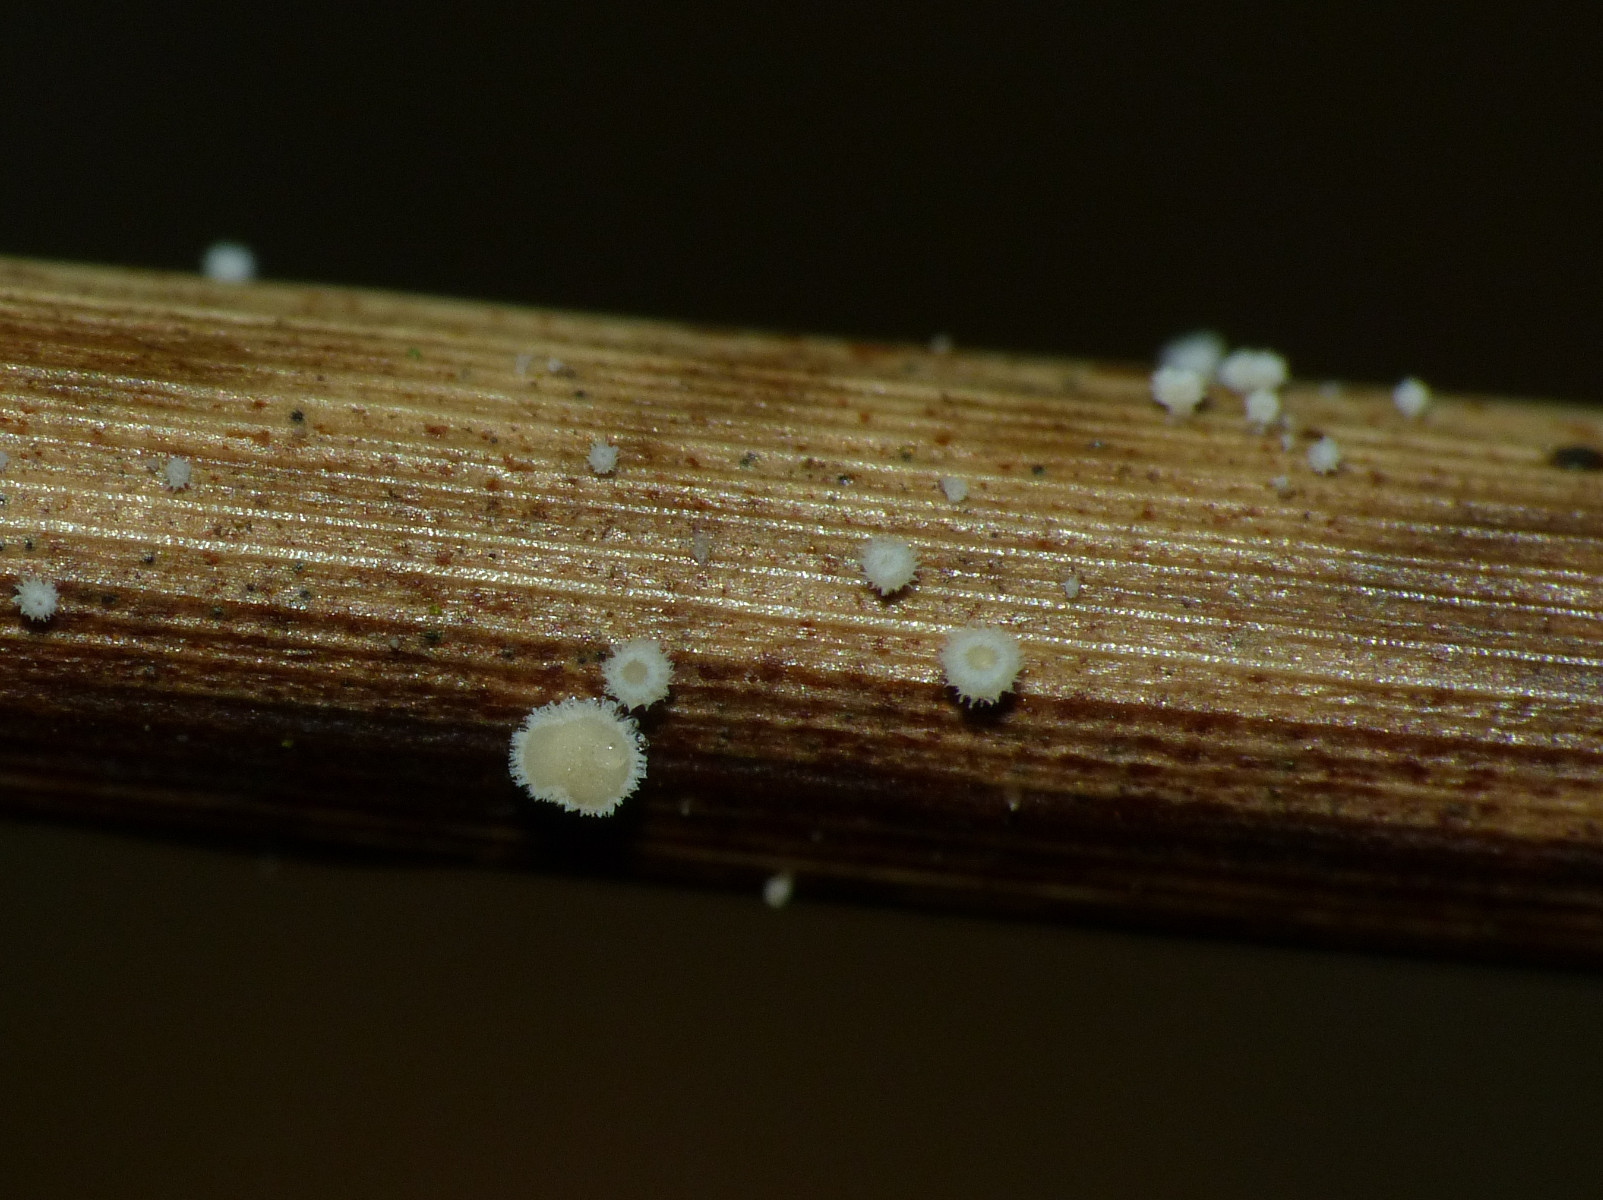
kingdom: Fungi
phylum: Ascomycota
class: Leotiomycetes
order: Helotiales
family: Lachnaceae
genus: Lachnum
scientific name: Lachnum apalum
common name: siv-frynseskive
